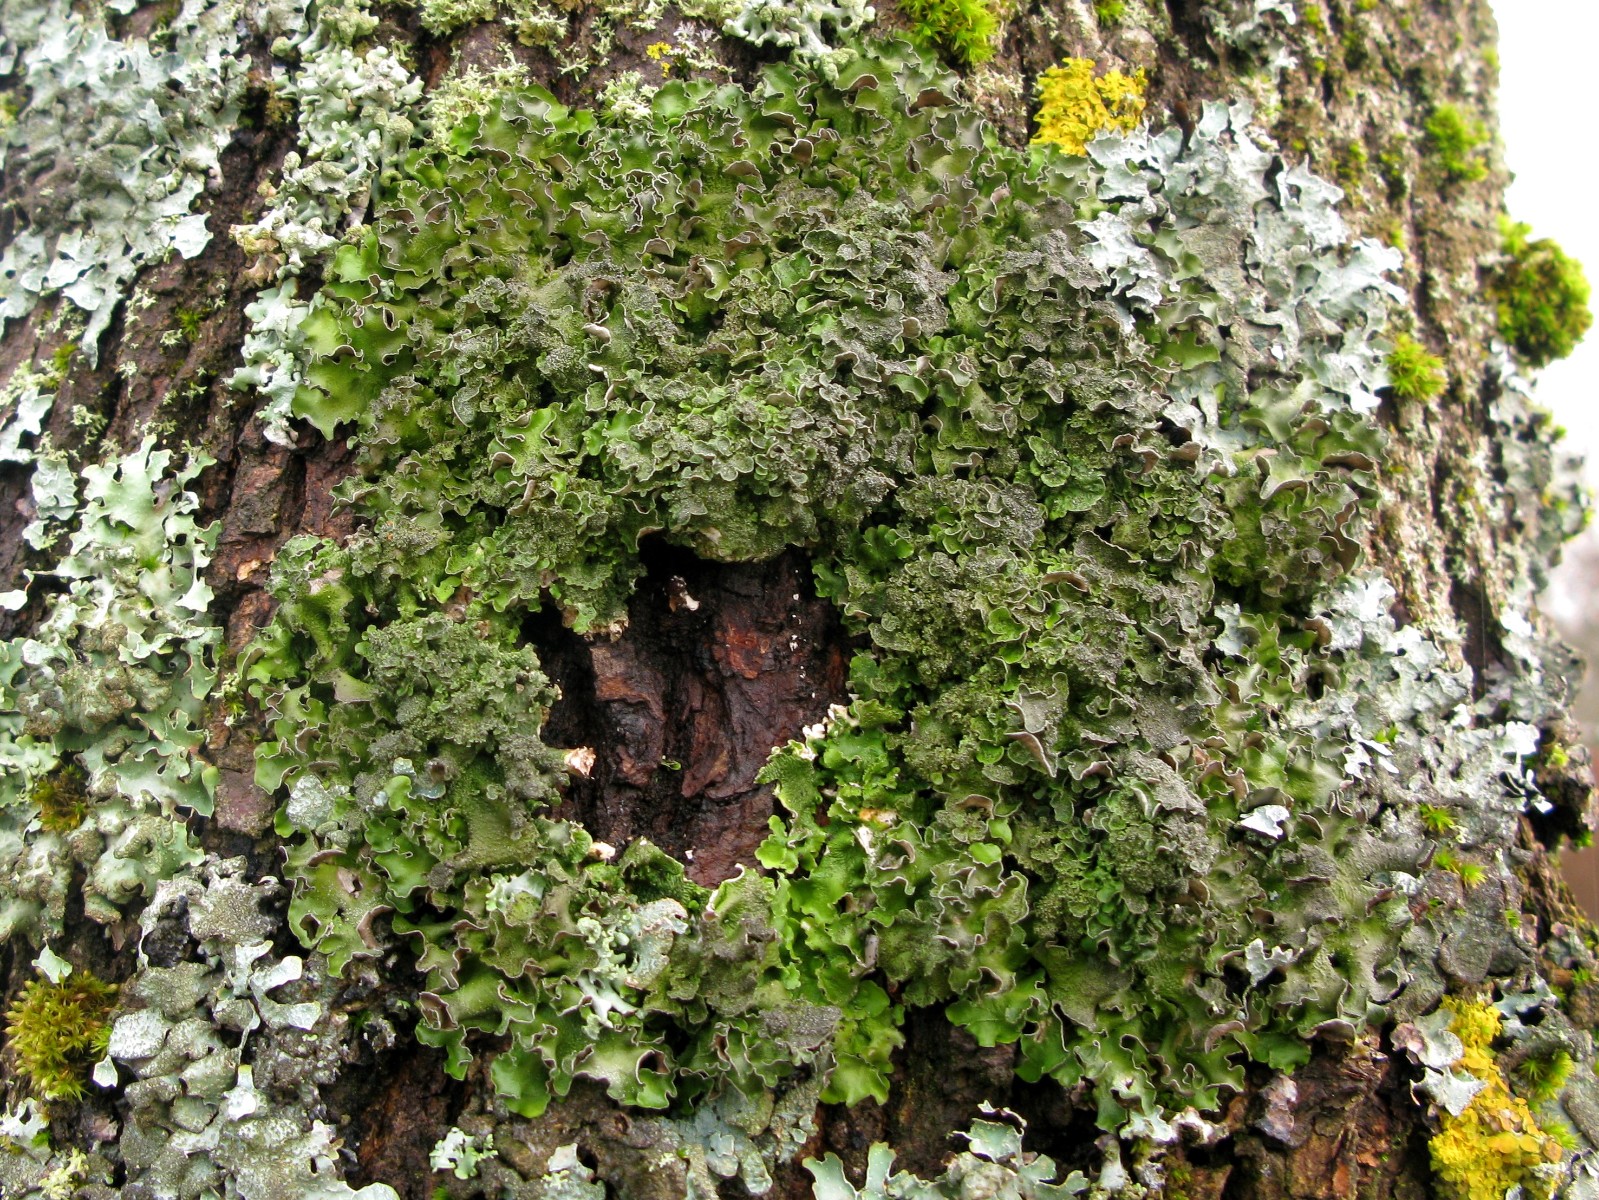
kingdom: Fungi
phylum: Ascomycota
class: Lecanoromycetes
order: Lecanorales
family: Parmeliaceae
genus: Pleurosticta
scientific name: Pleurosticta acetabulum
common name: stor skållav
